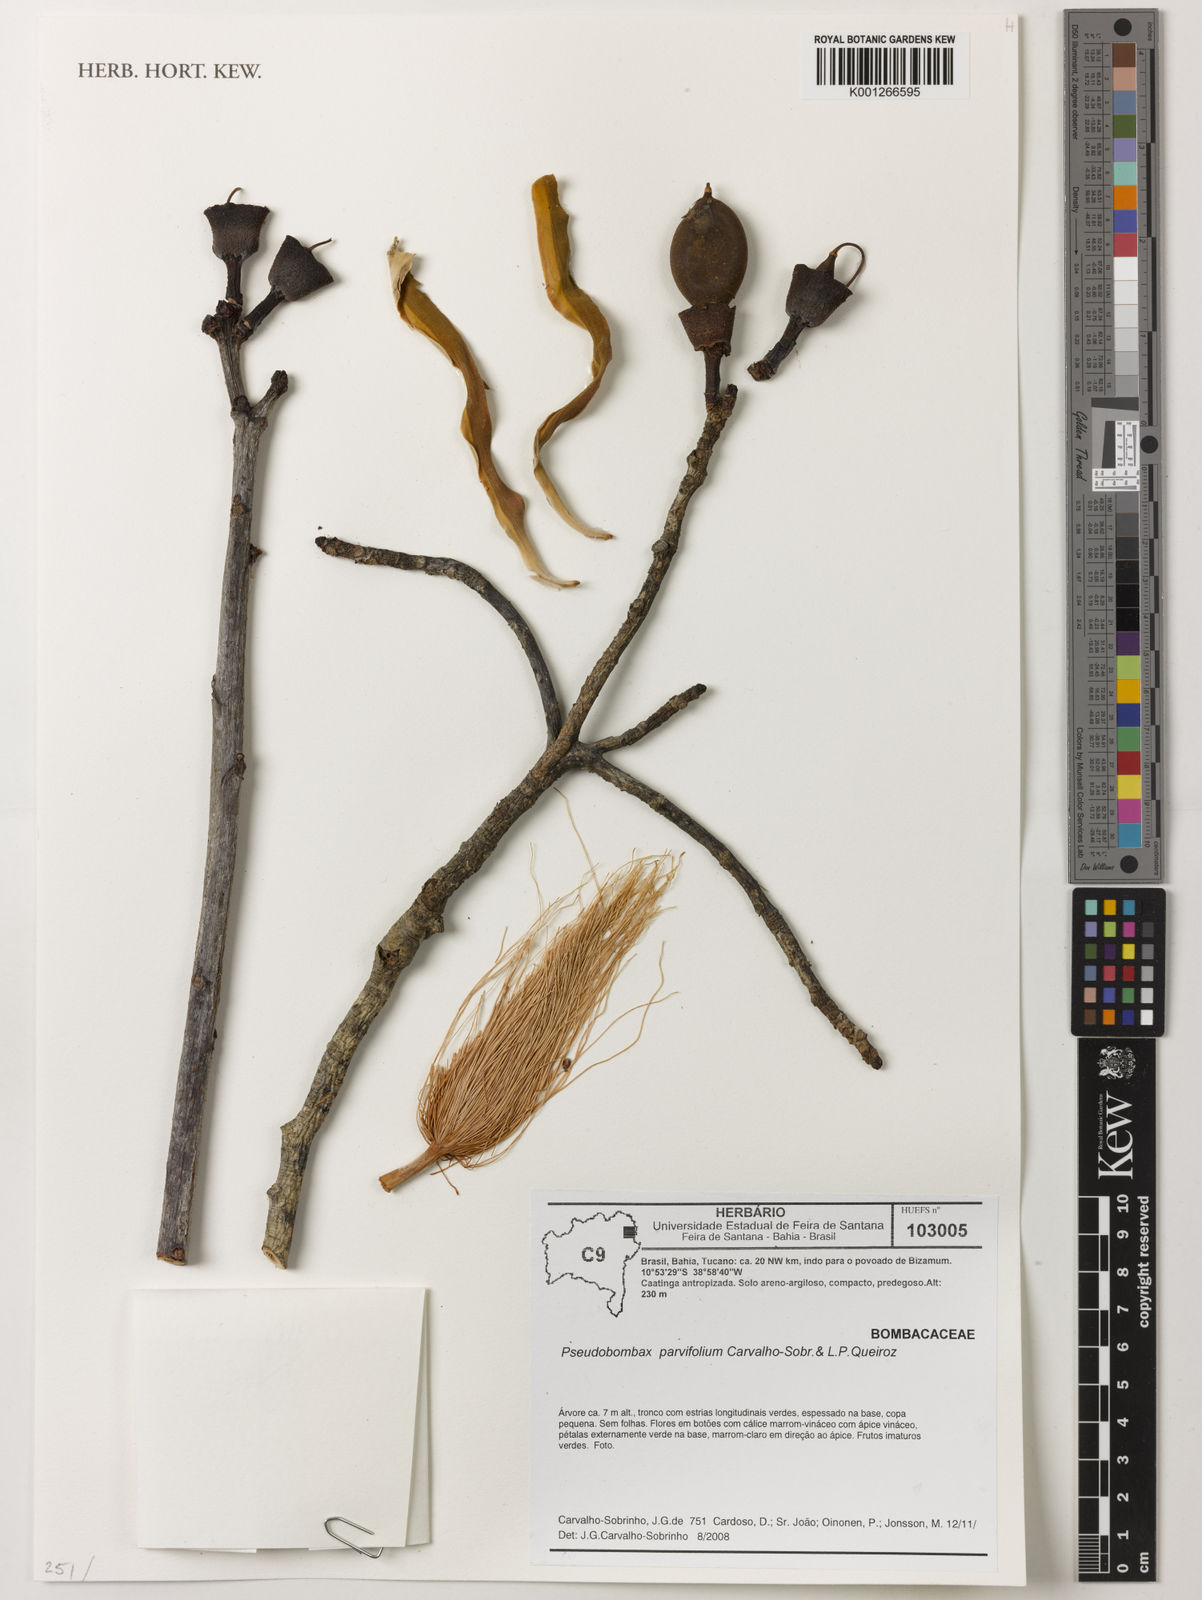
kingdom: Plantae
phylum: Tracheophyta
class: Magnoliopsida
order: Malvales
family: Malvaceae
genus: Pseudobombax
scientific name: Pseudobombax parvifolium
